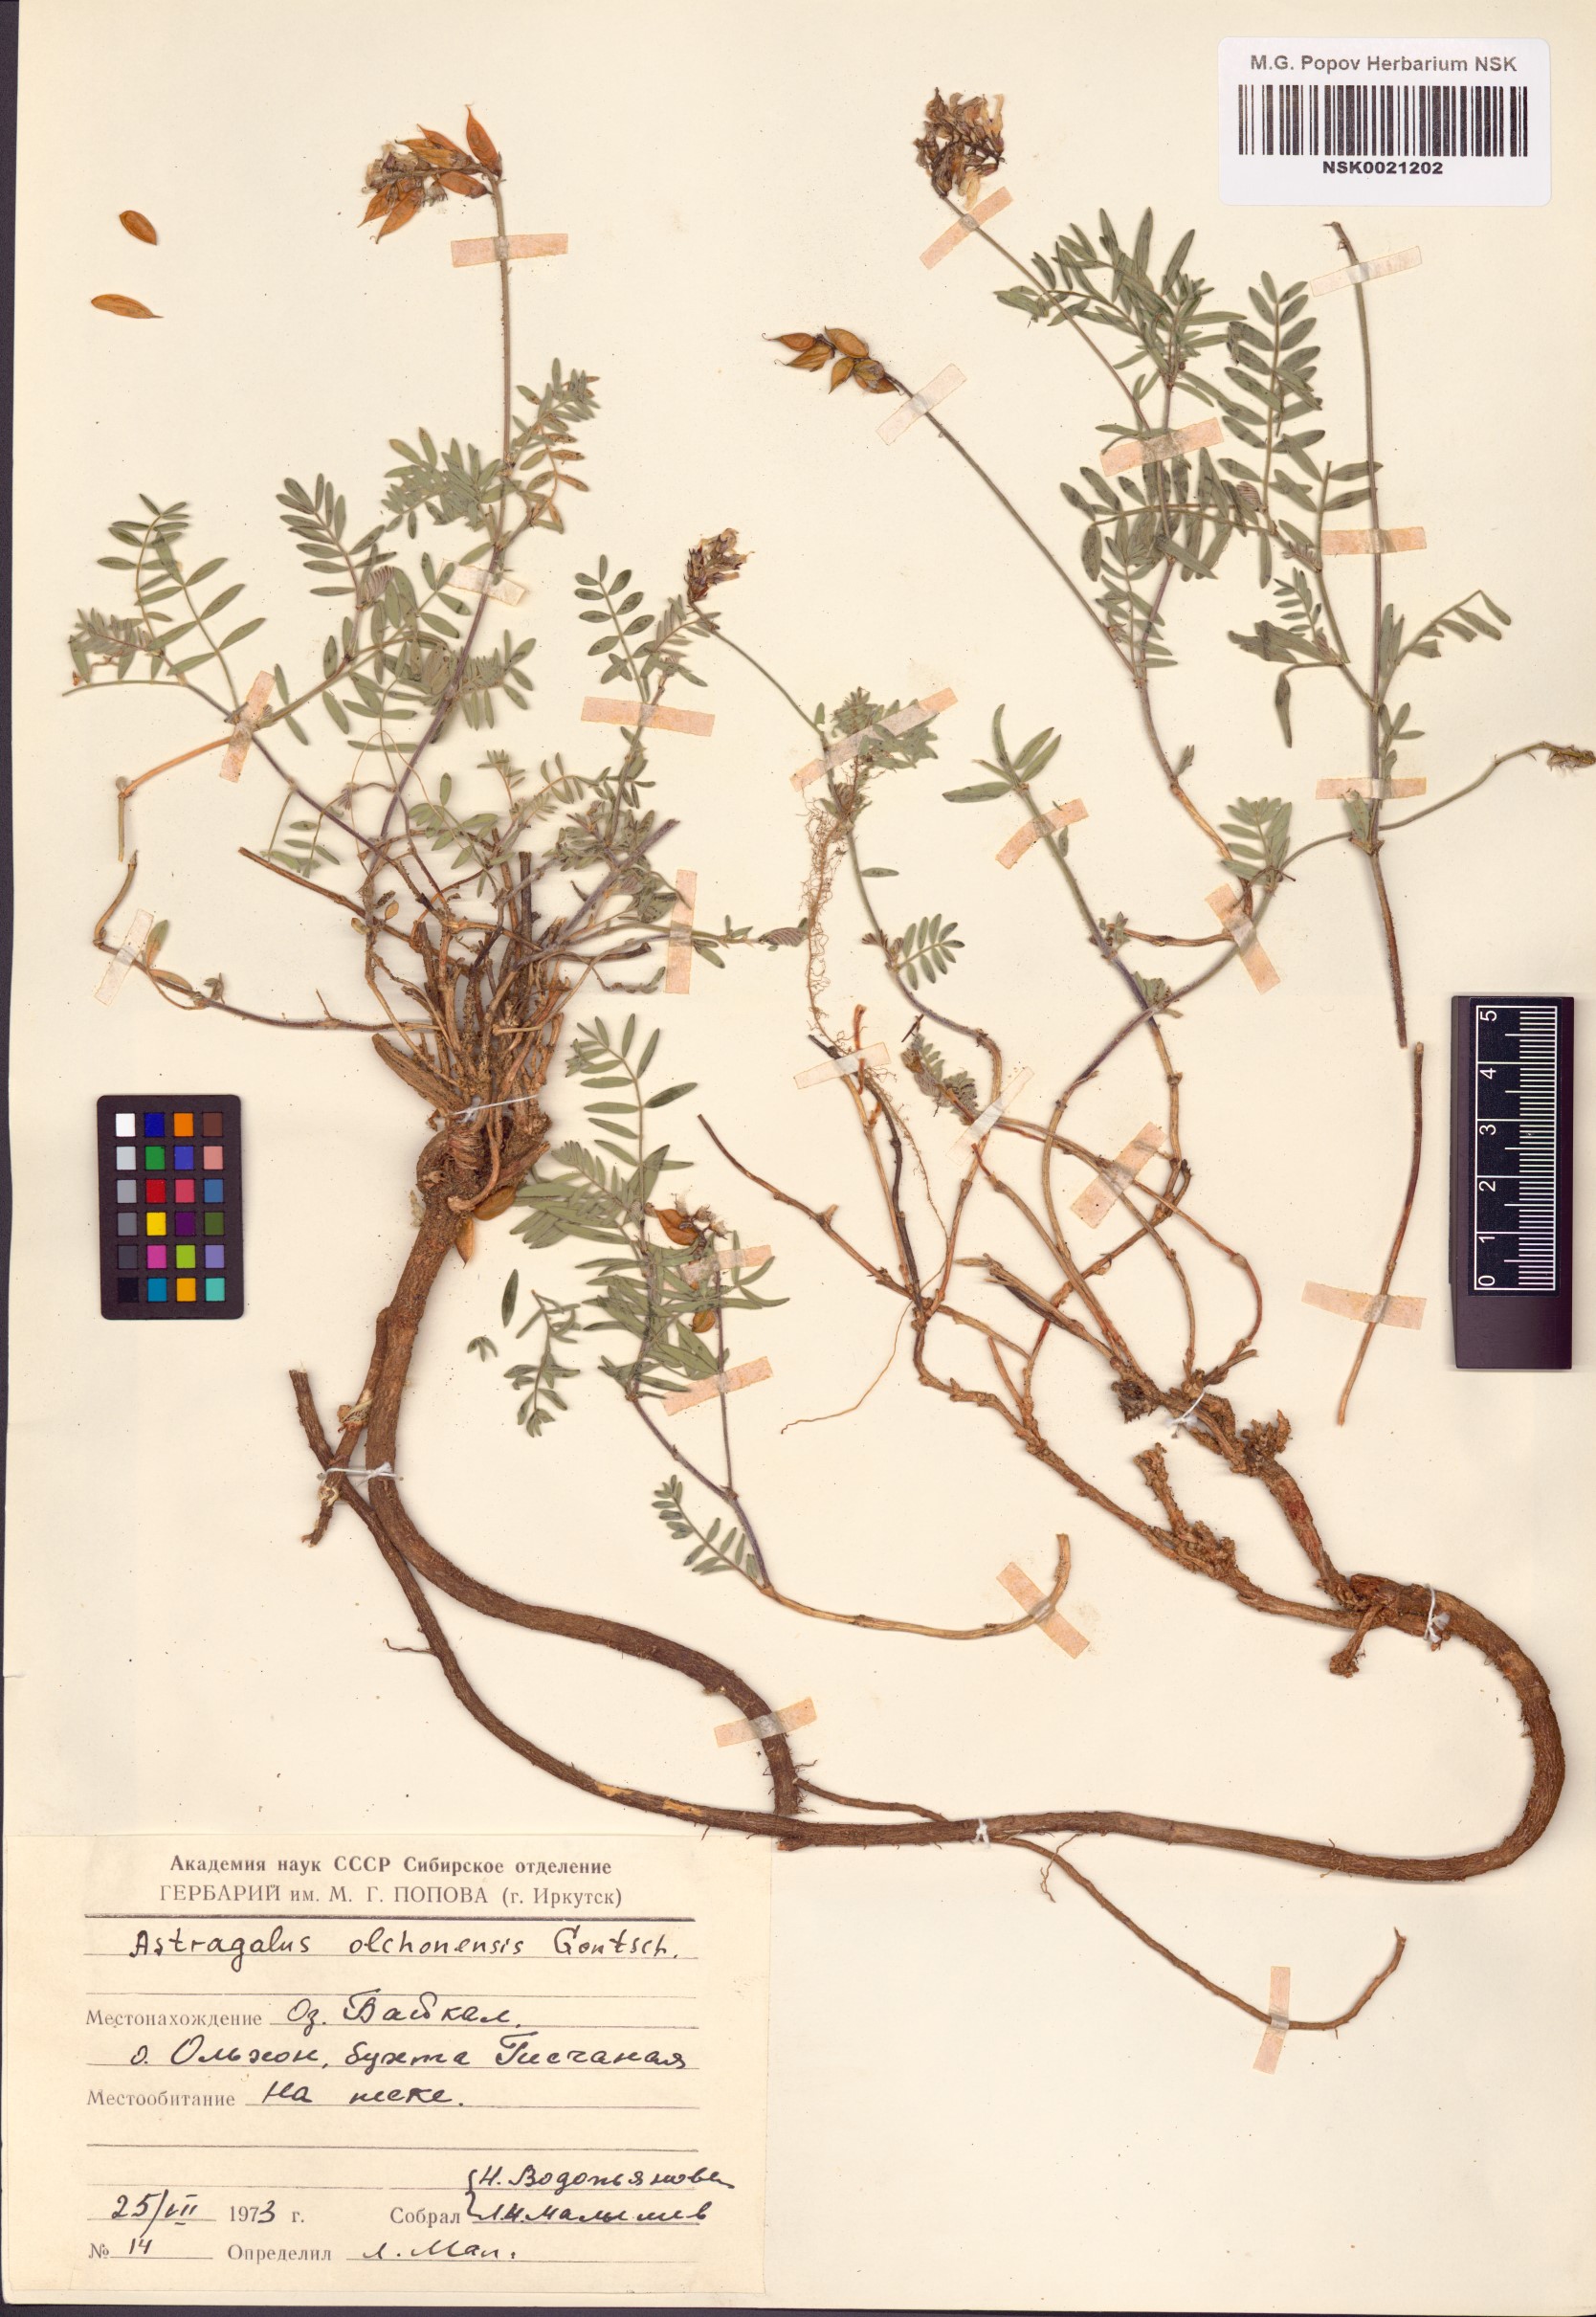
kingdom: Plantae
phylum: Tracheophyta
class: Magnoliopsida
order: Fabales
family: Fabaceae
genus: Astragalus
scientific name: Astragalus olchonensis
